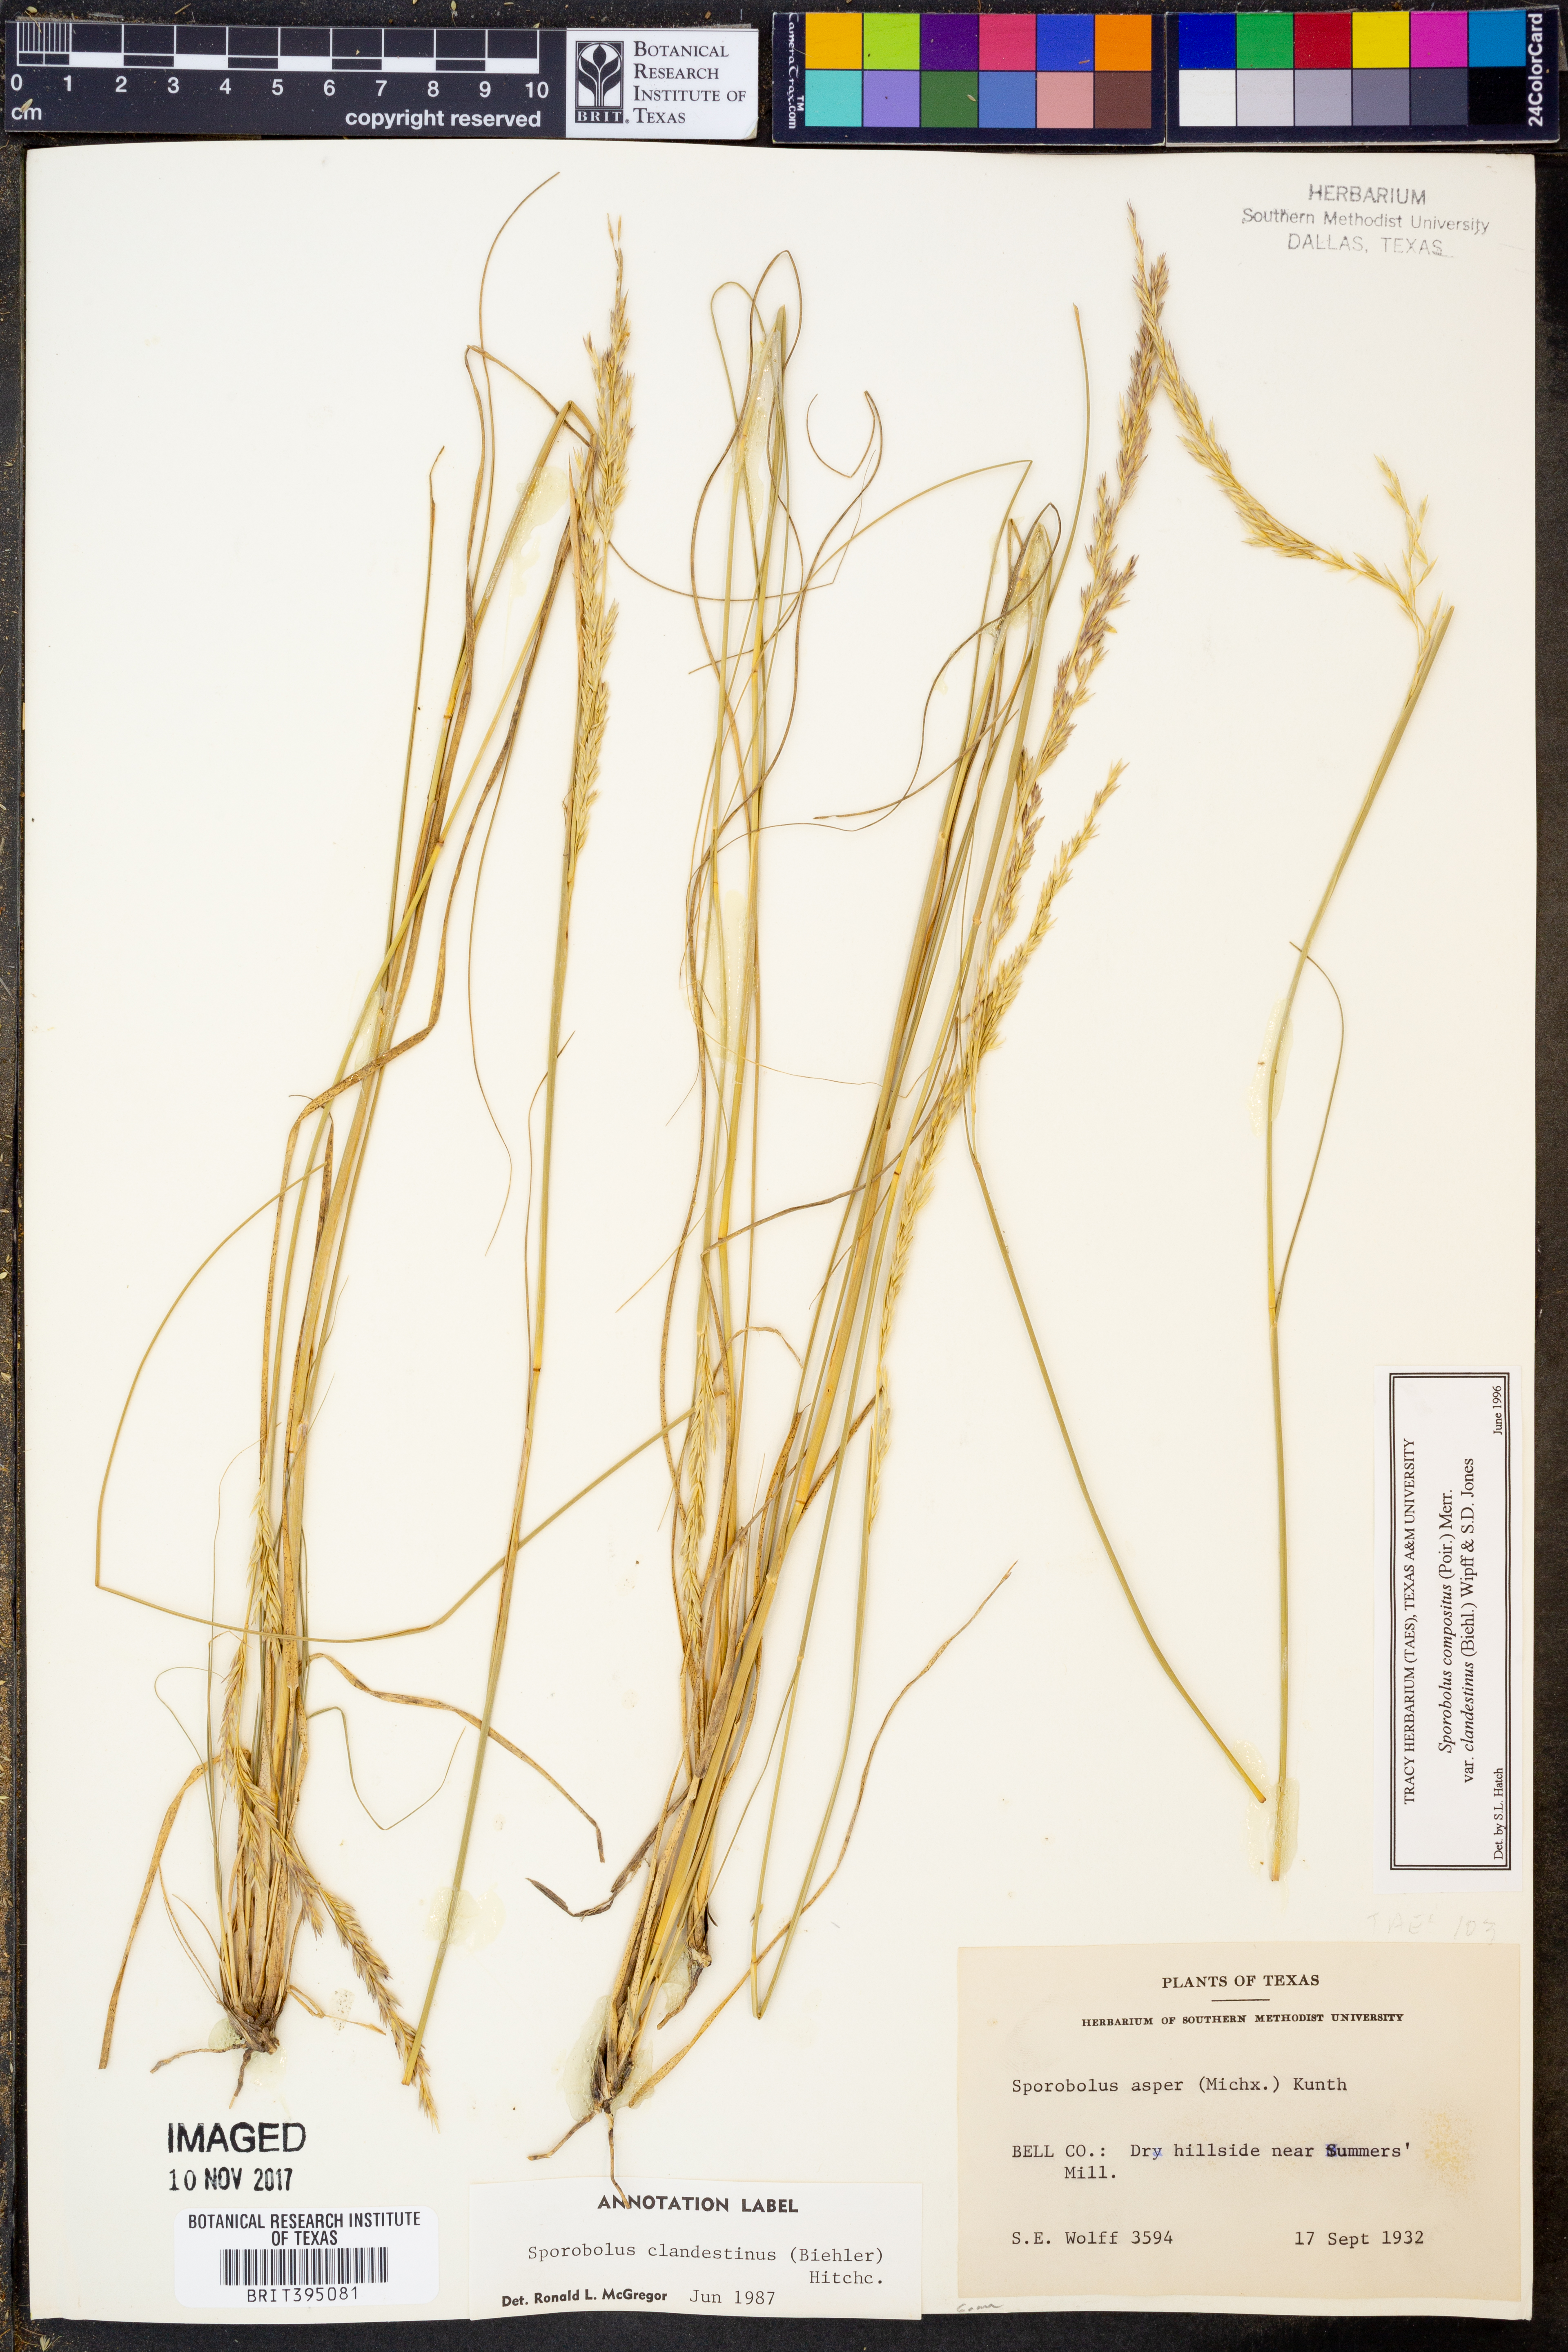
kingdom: Plantae
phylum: Tracheophyta
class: Liliopsida
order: Poales
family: Poaceae
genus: Sporobolus
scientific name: Sporobolus clandestinus
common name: Hidden dropseed
